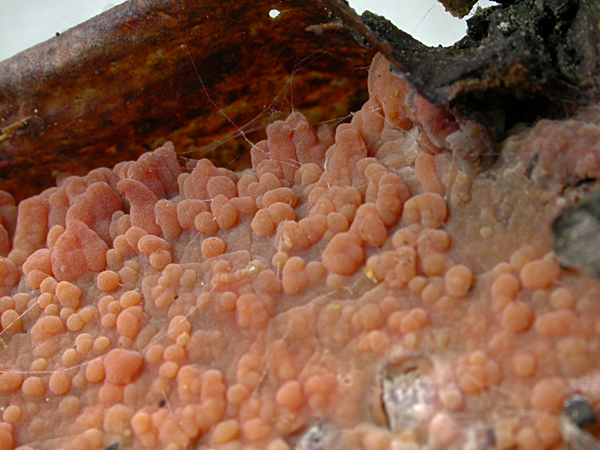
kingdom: Fungi
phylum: Basidiomycota
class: Agaricomycetes
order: Russulales
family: Peniophoraceae
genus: Peniophora
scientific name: Peniophora laeta
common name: tandet voksskind
